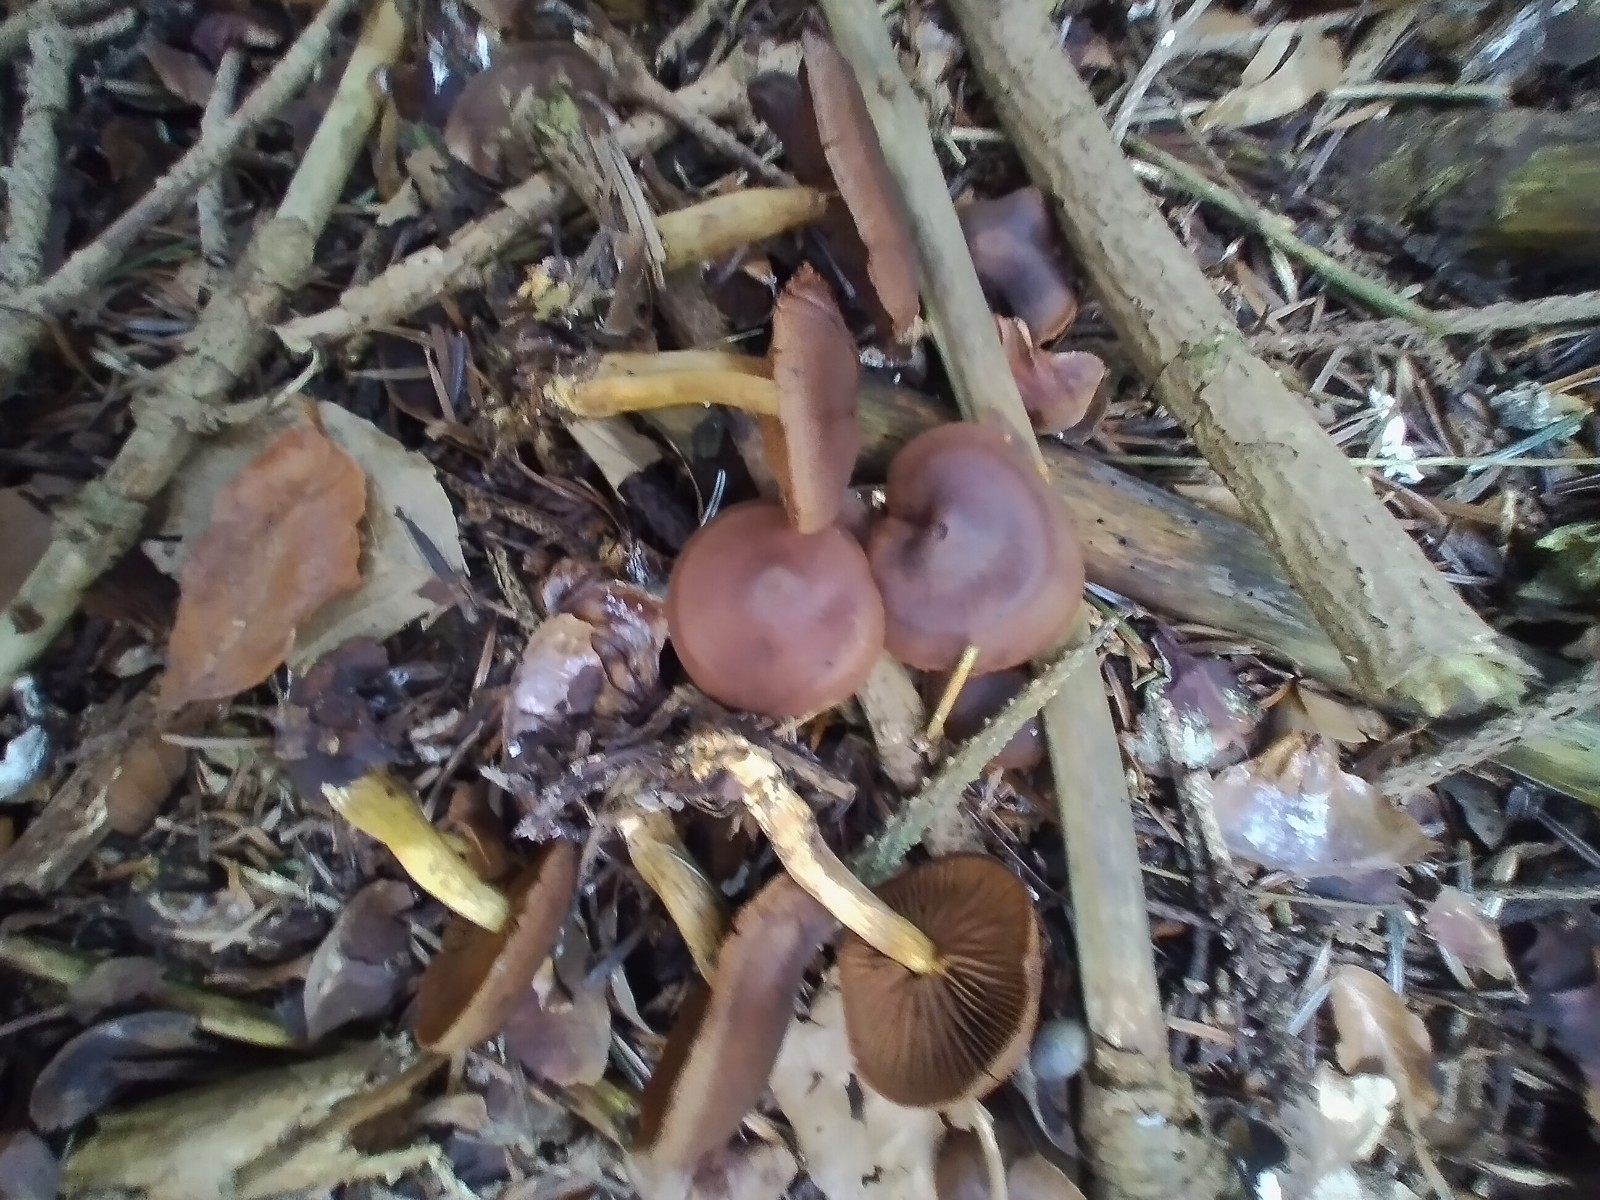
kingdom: Fungi
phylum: Basidiomycota
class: Agaricomycetes
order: Agaricales
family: Cortinariaceae
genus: Cortinarius
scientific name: Cortinarius
